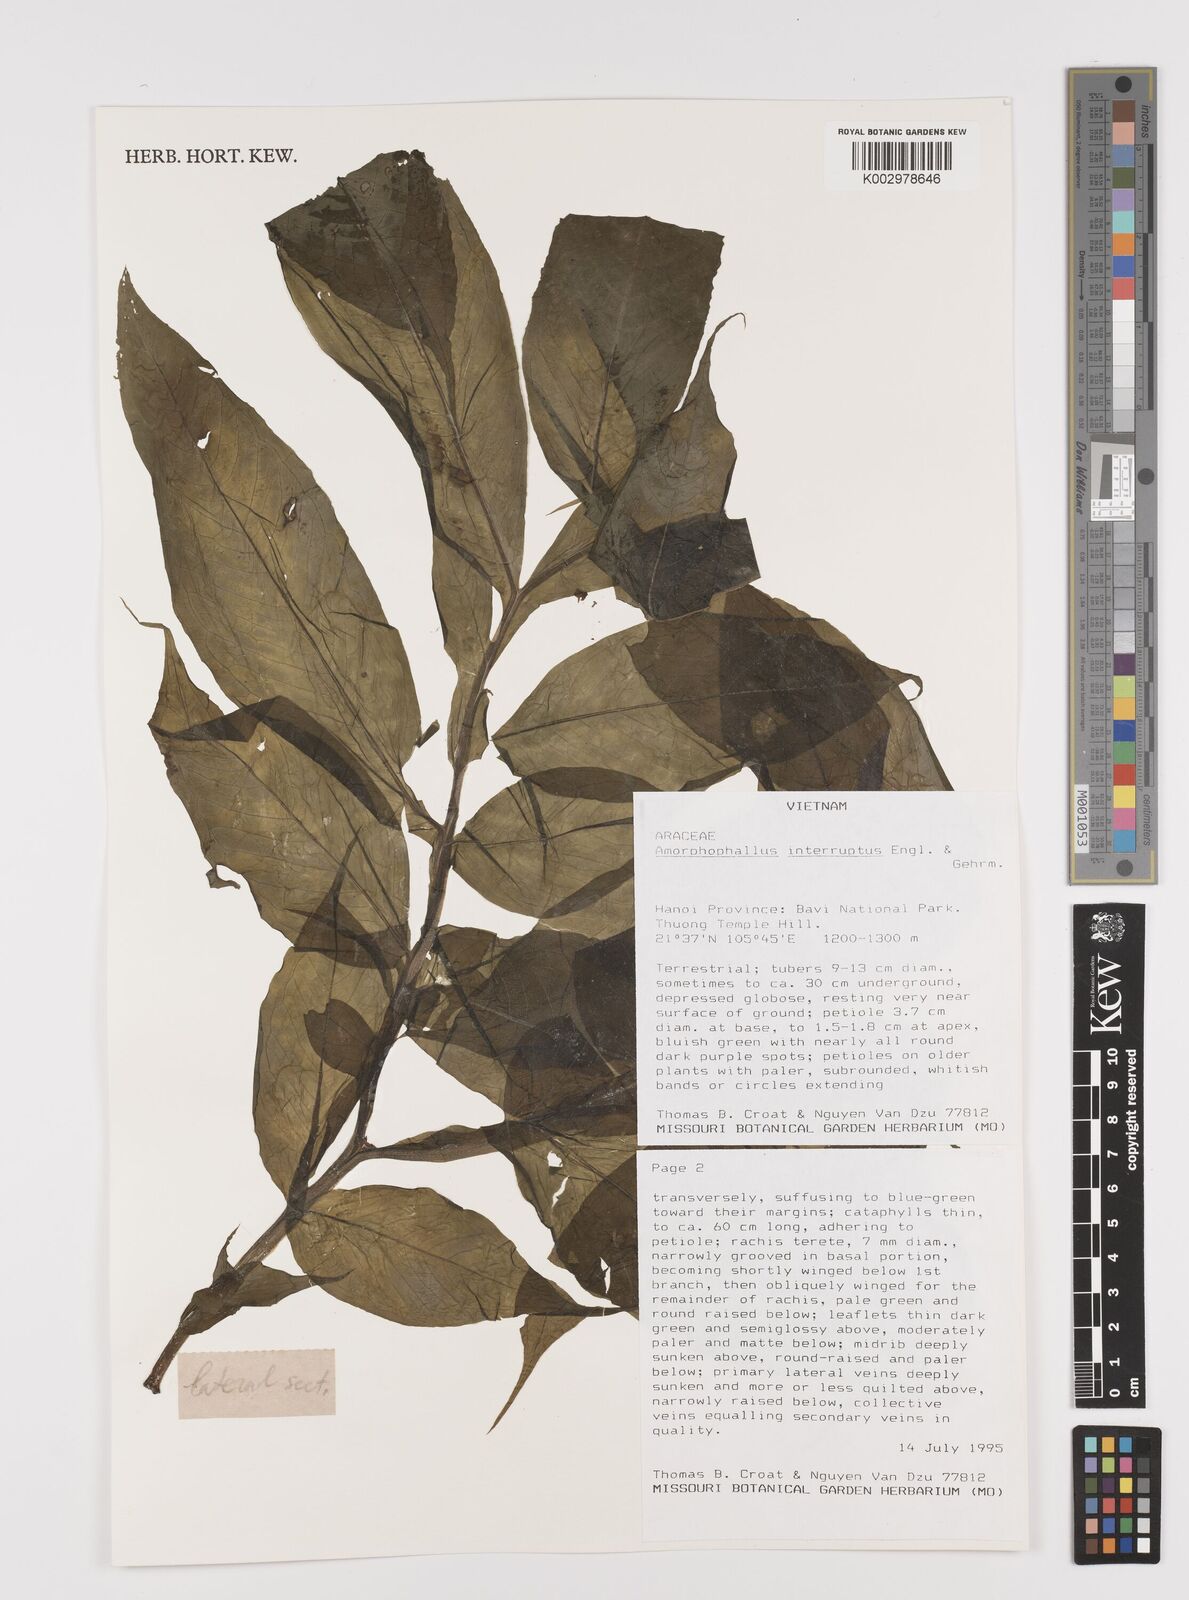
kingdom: Plantae
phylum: Tracheophyta
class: Liliopsida
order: Alismatales
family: Araceae
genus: Amorphophallus
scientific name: Amorphophallus interruptus
